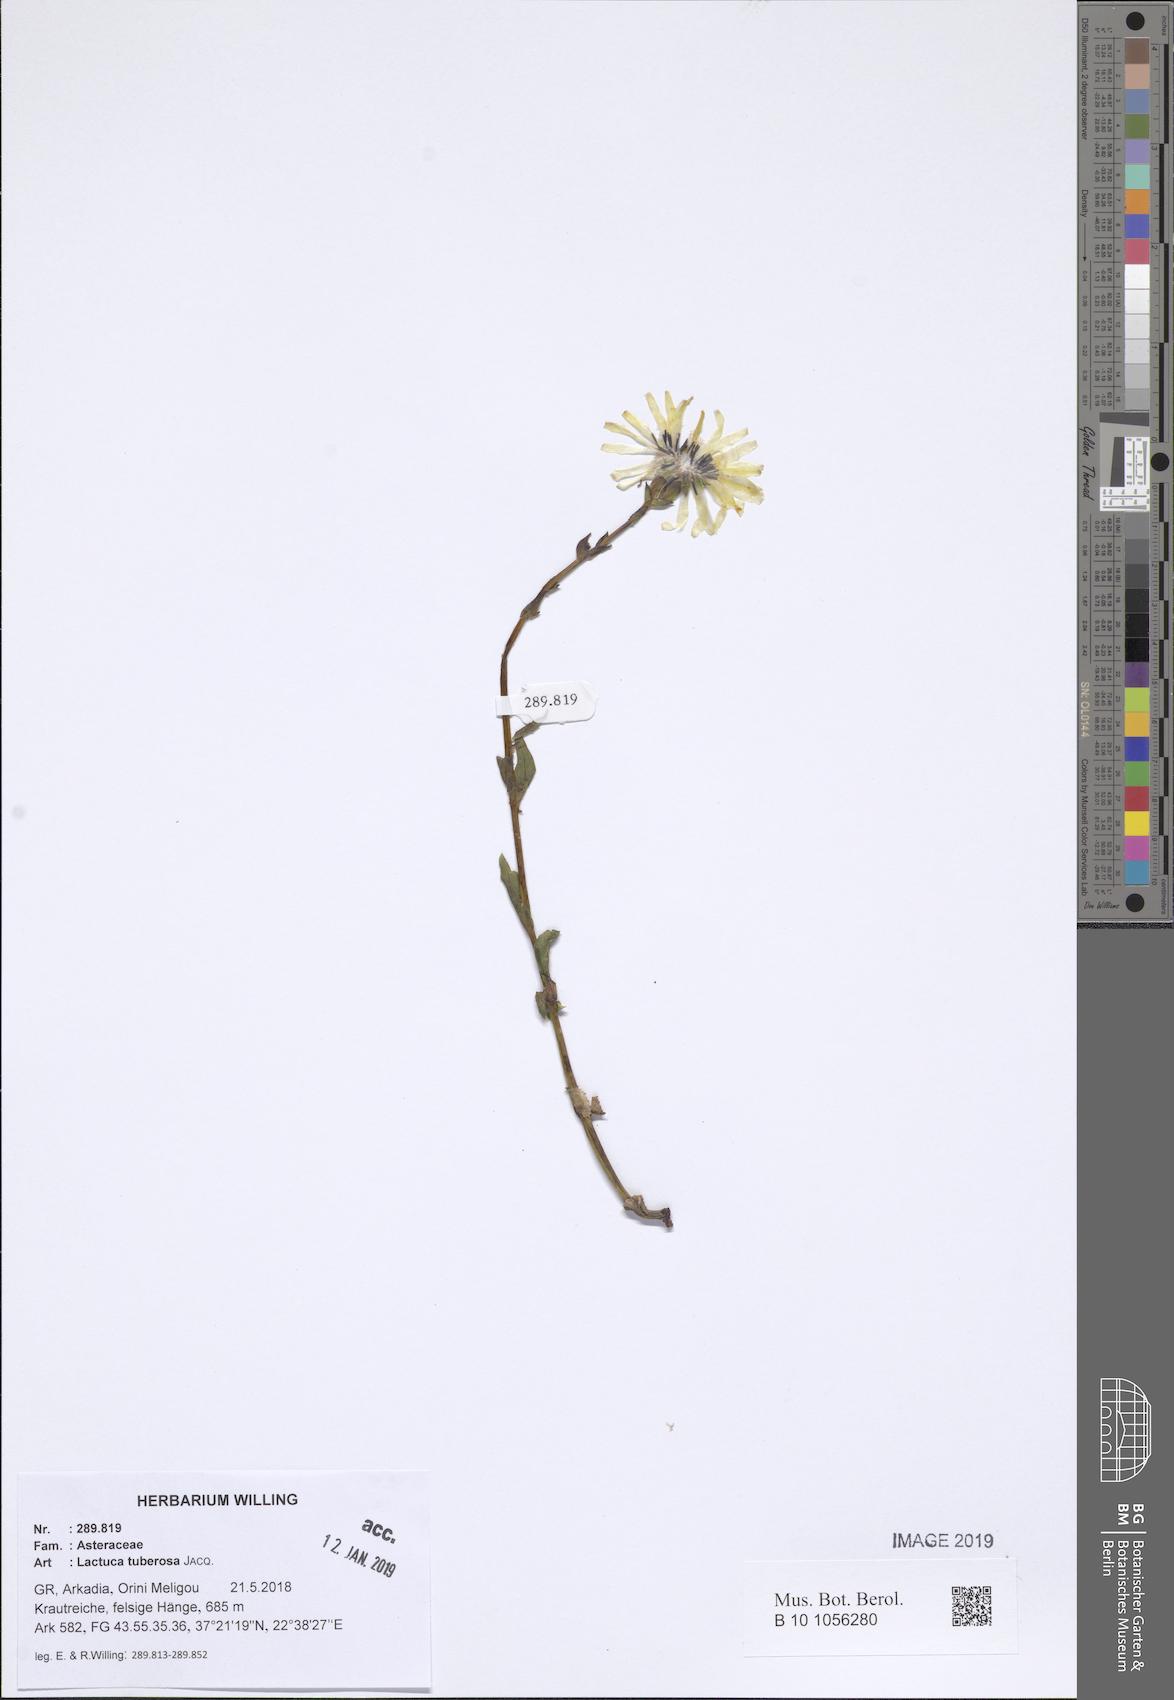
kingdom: Plantae
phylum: Tracheophyta
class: Magnoliopsida
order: Asterales
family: Asteraceae
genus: Lactuca
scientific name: Lactuca tuberosa
